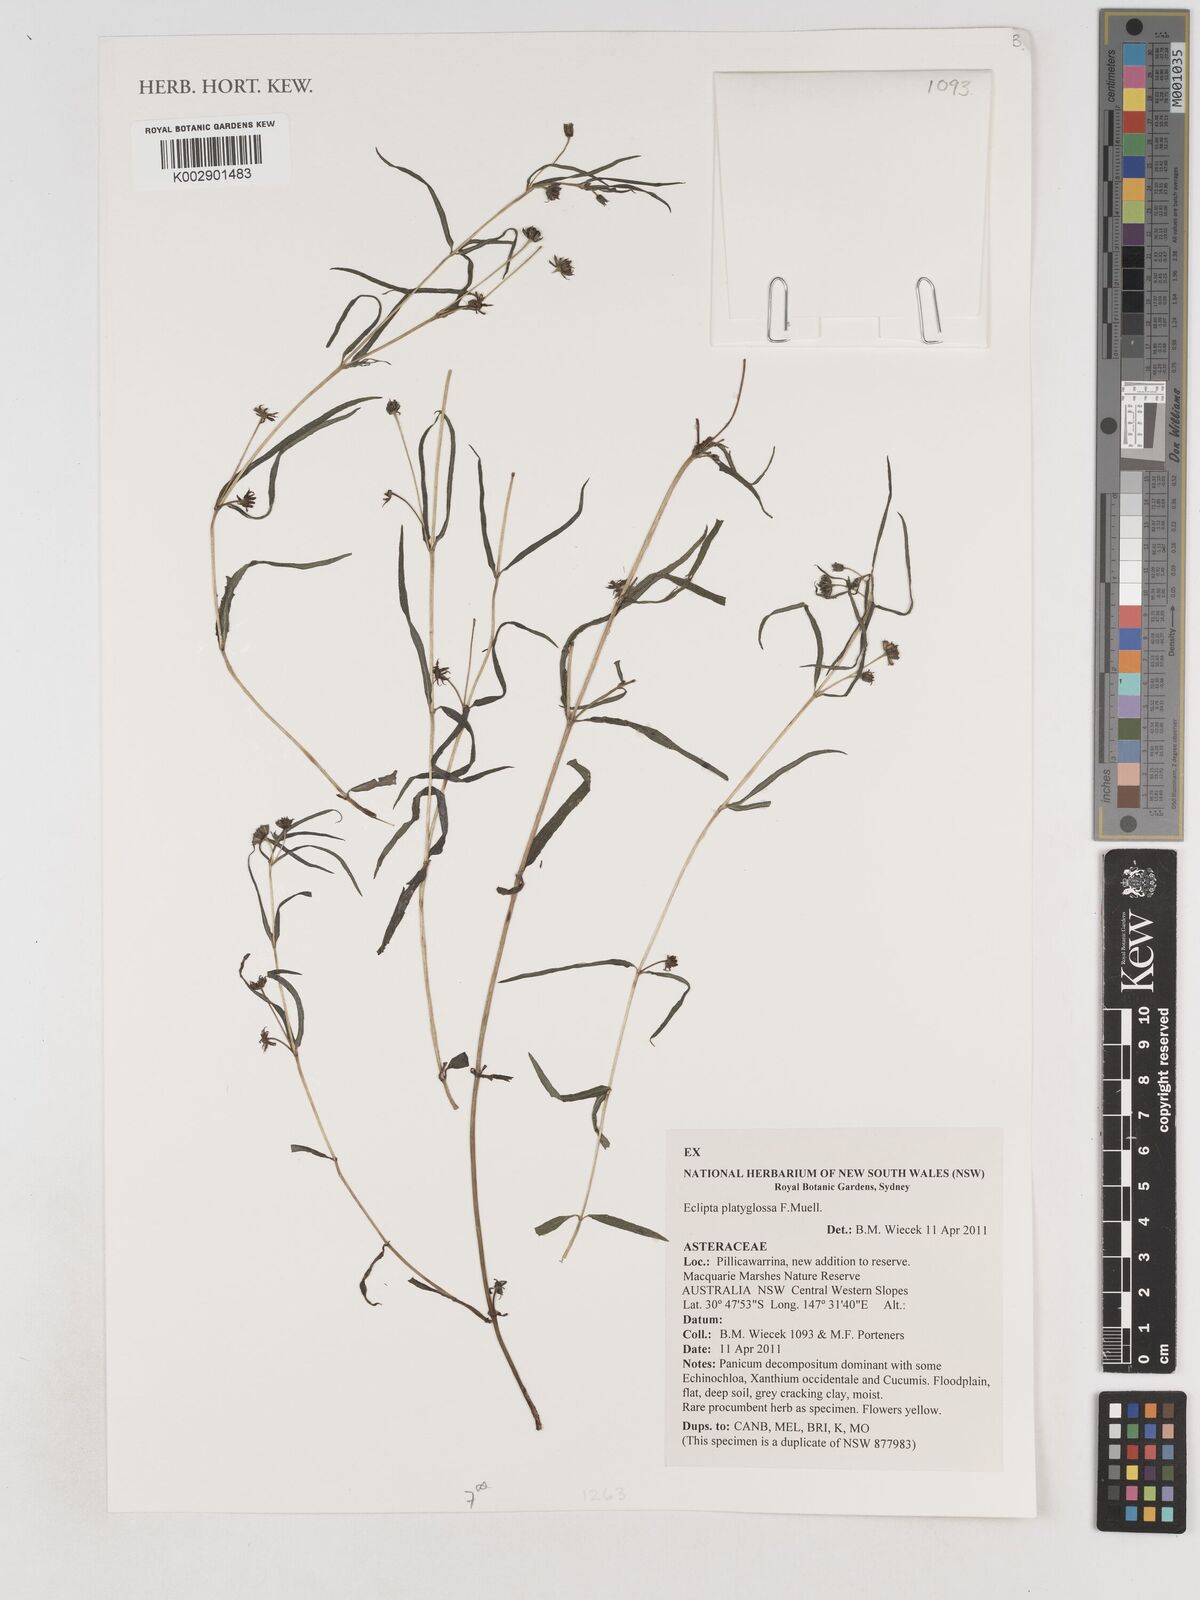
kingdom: Plantae
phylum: Tracheophyta
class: Magnoliopsida
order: Asterales
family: Asteraceae
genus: Eclipta
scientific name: Eclipta platyglossa
